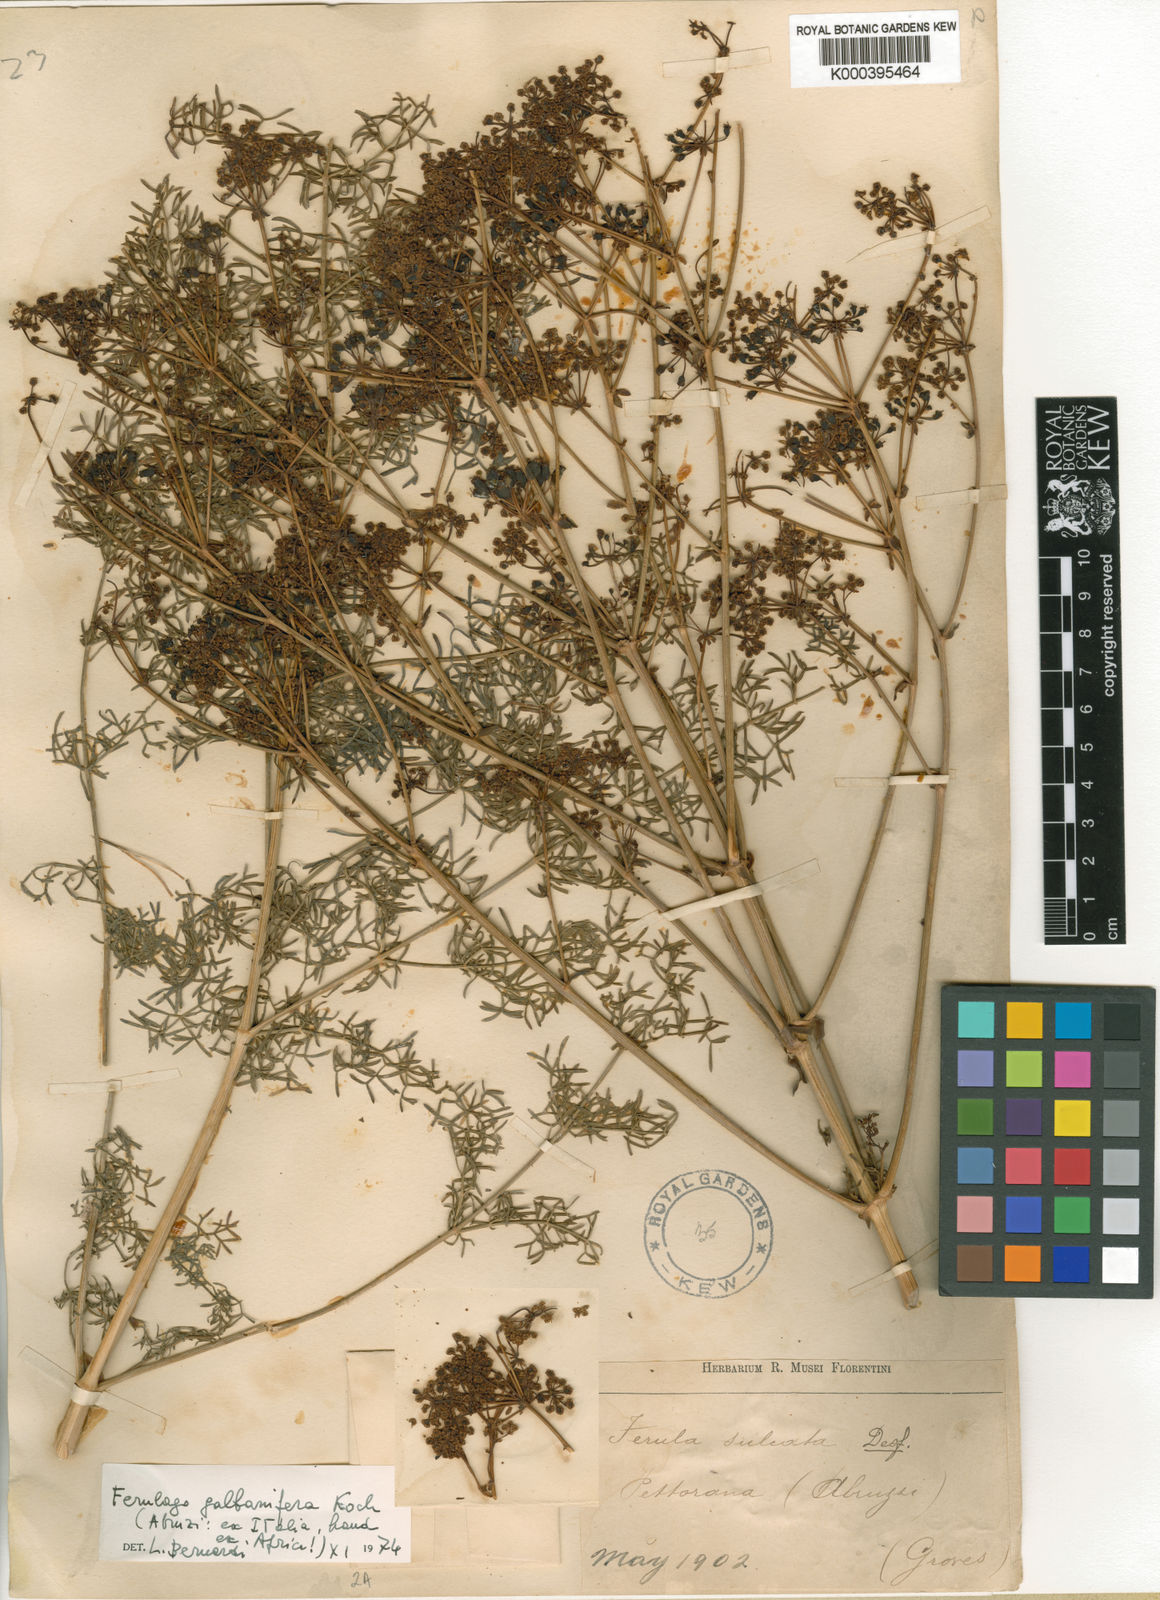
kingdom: Plantae
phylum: Tracheophyta
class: Magnoliopsida
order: Apiales
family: Apiaceae
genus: Ferulago
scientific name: Ferulago galbanifera
